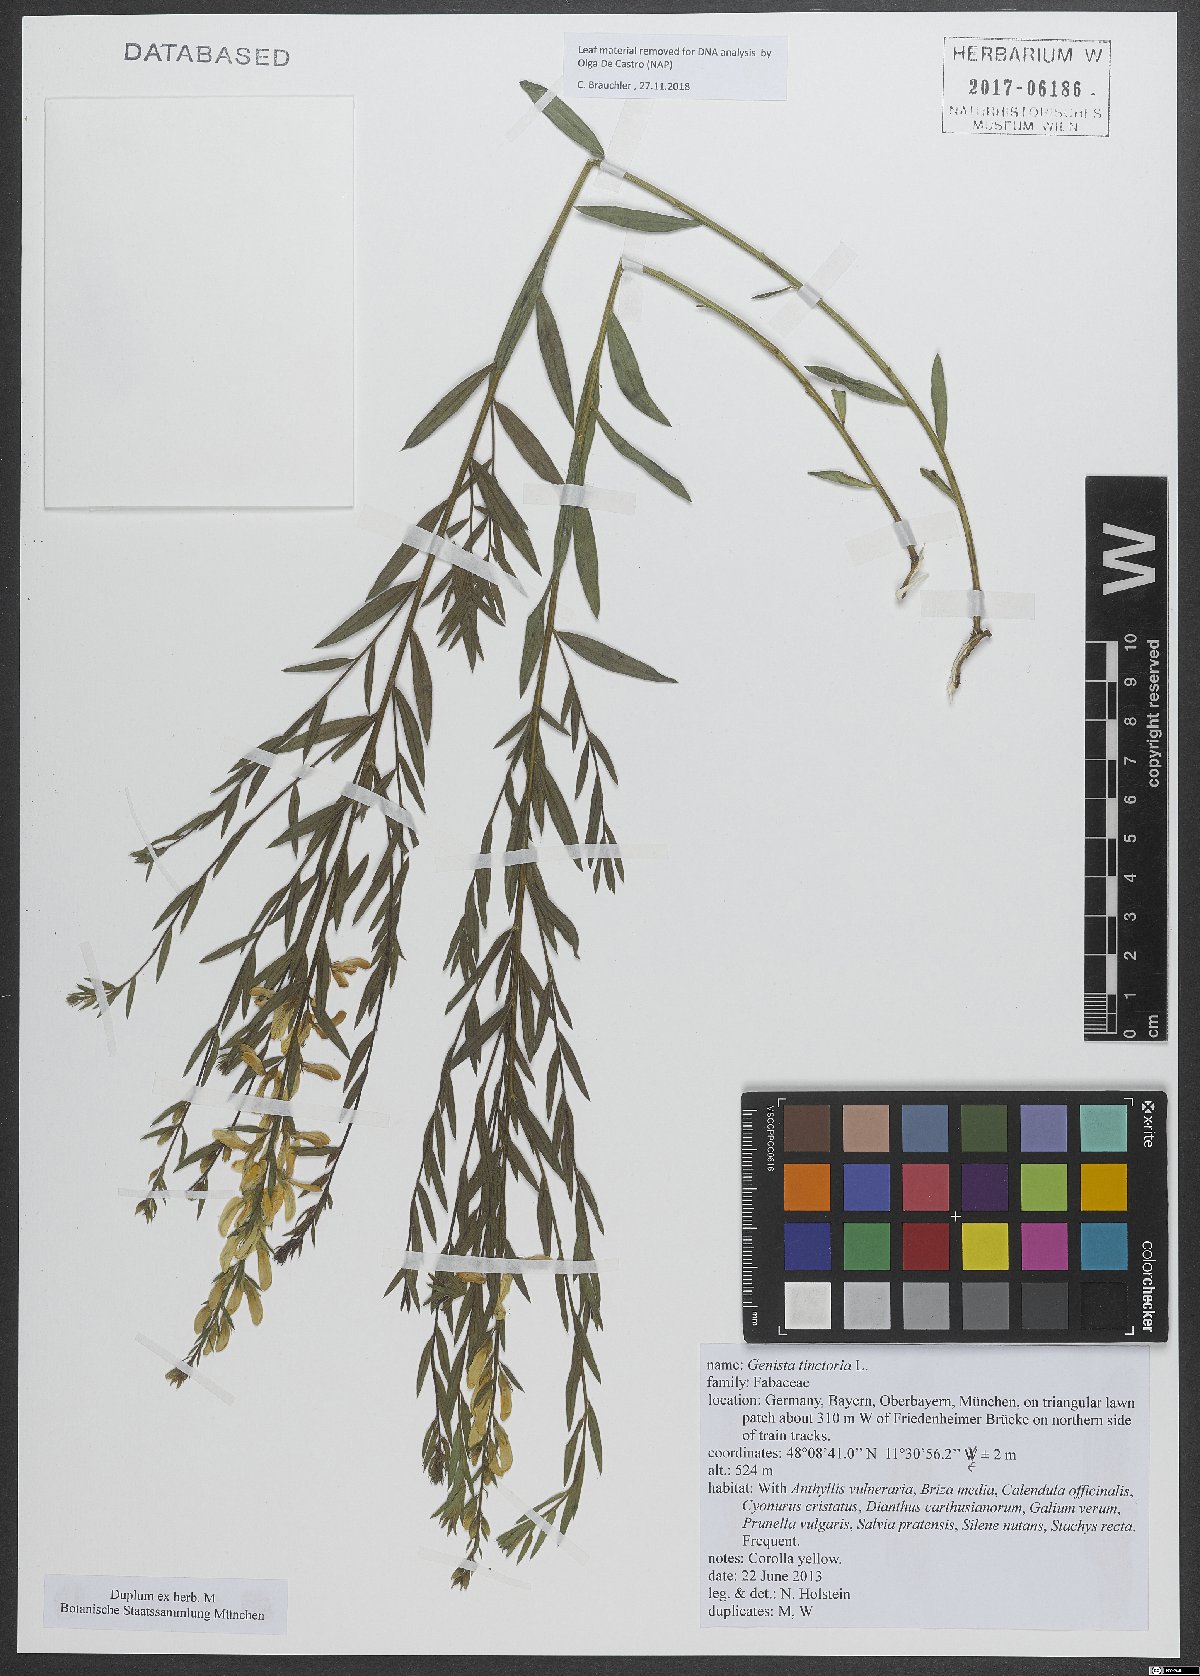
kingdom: Plantae
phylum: Tracheophyta
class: Magnoliopsida
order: Fabales
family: Fabaceae
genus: Genista
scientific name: Genista tinctoria
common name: Dyer's greenweed
